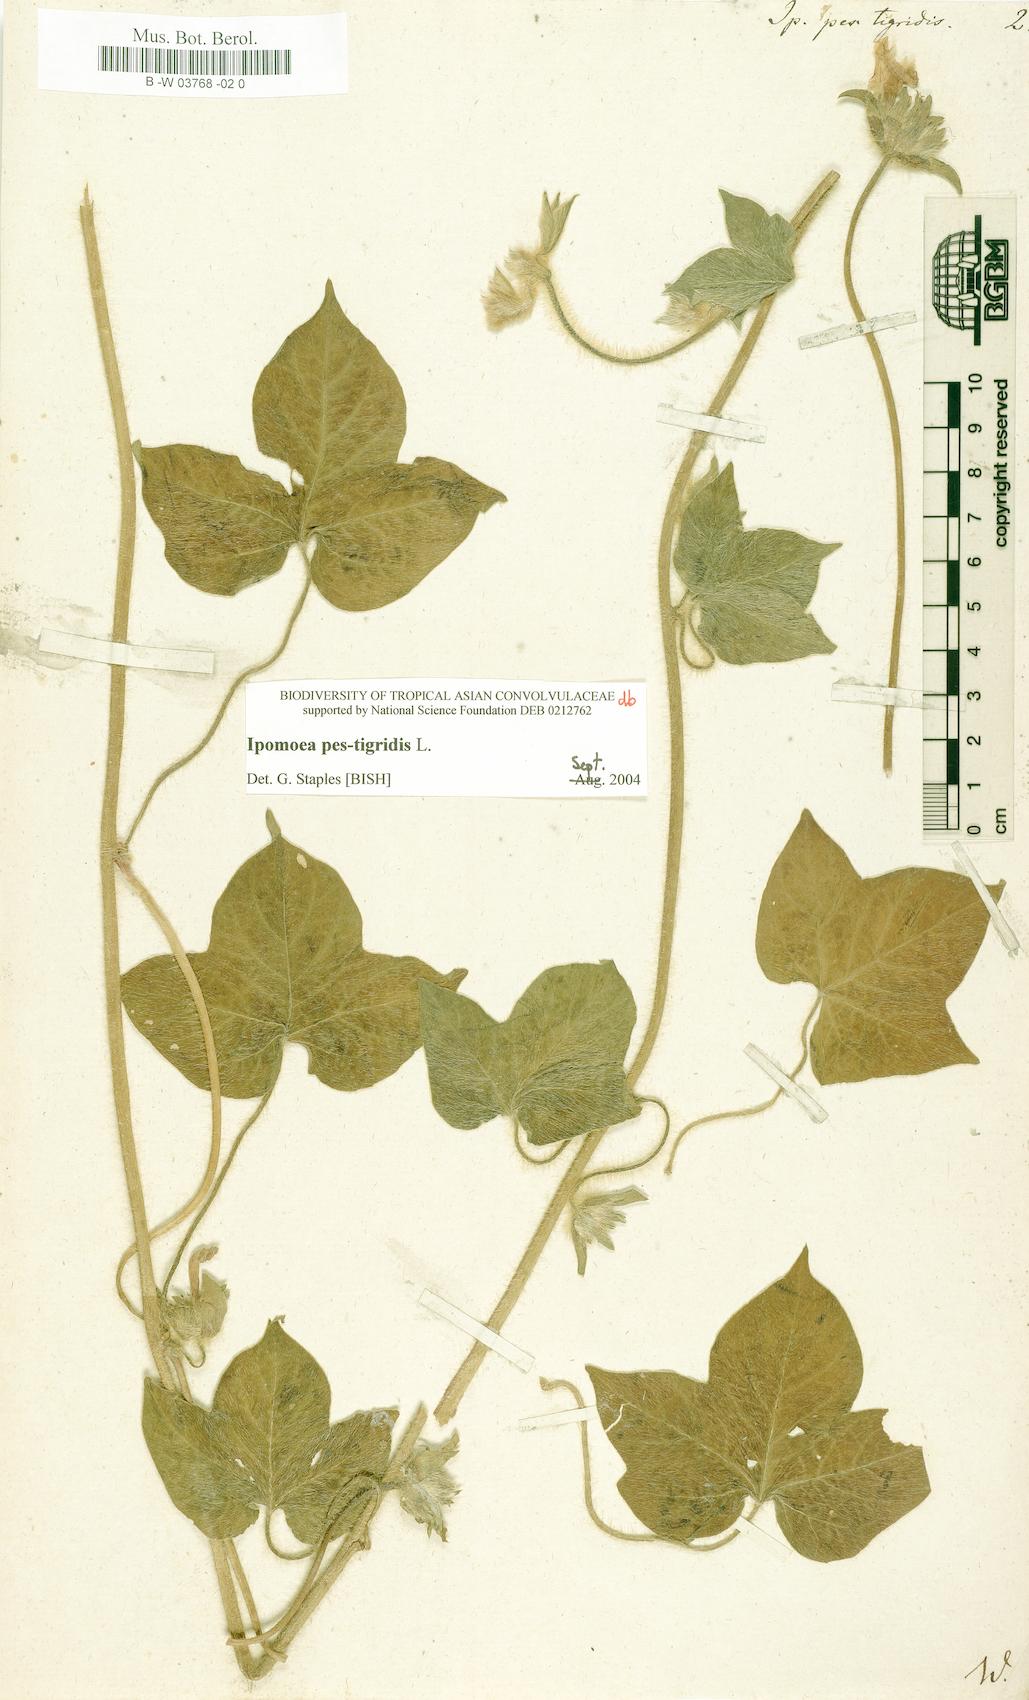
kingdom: Plantae
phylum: Tracheophyta
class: Magnoliopsida
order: Solanales
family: Convolvulaceae
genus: Ipomoea
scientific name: Ipomoea pes-tigridis
